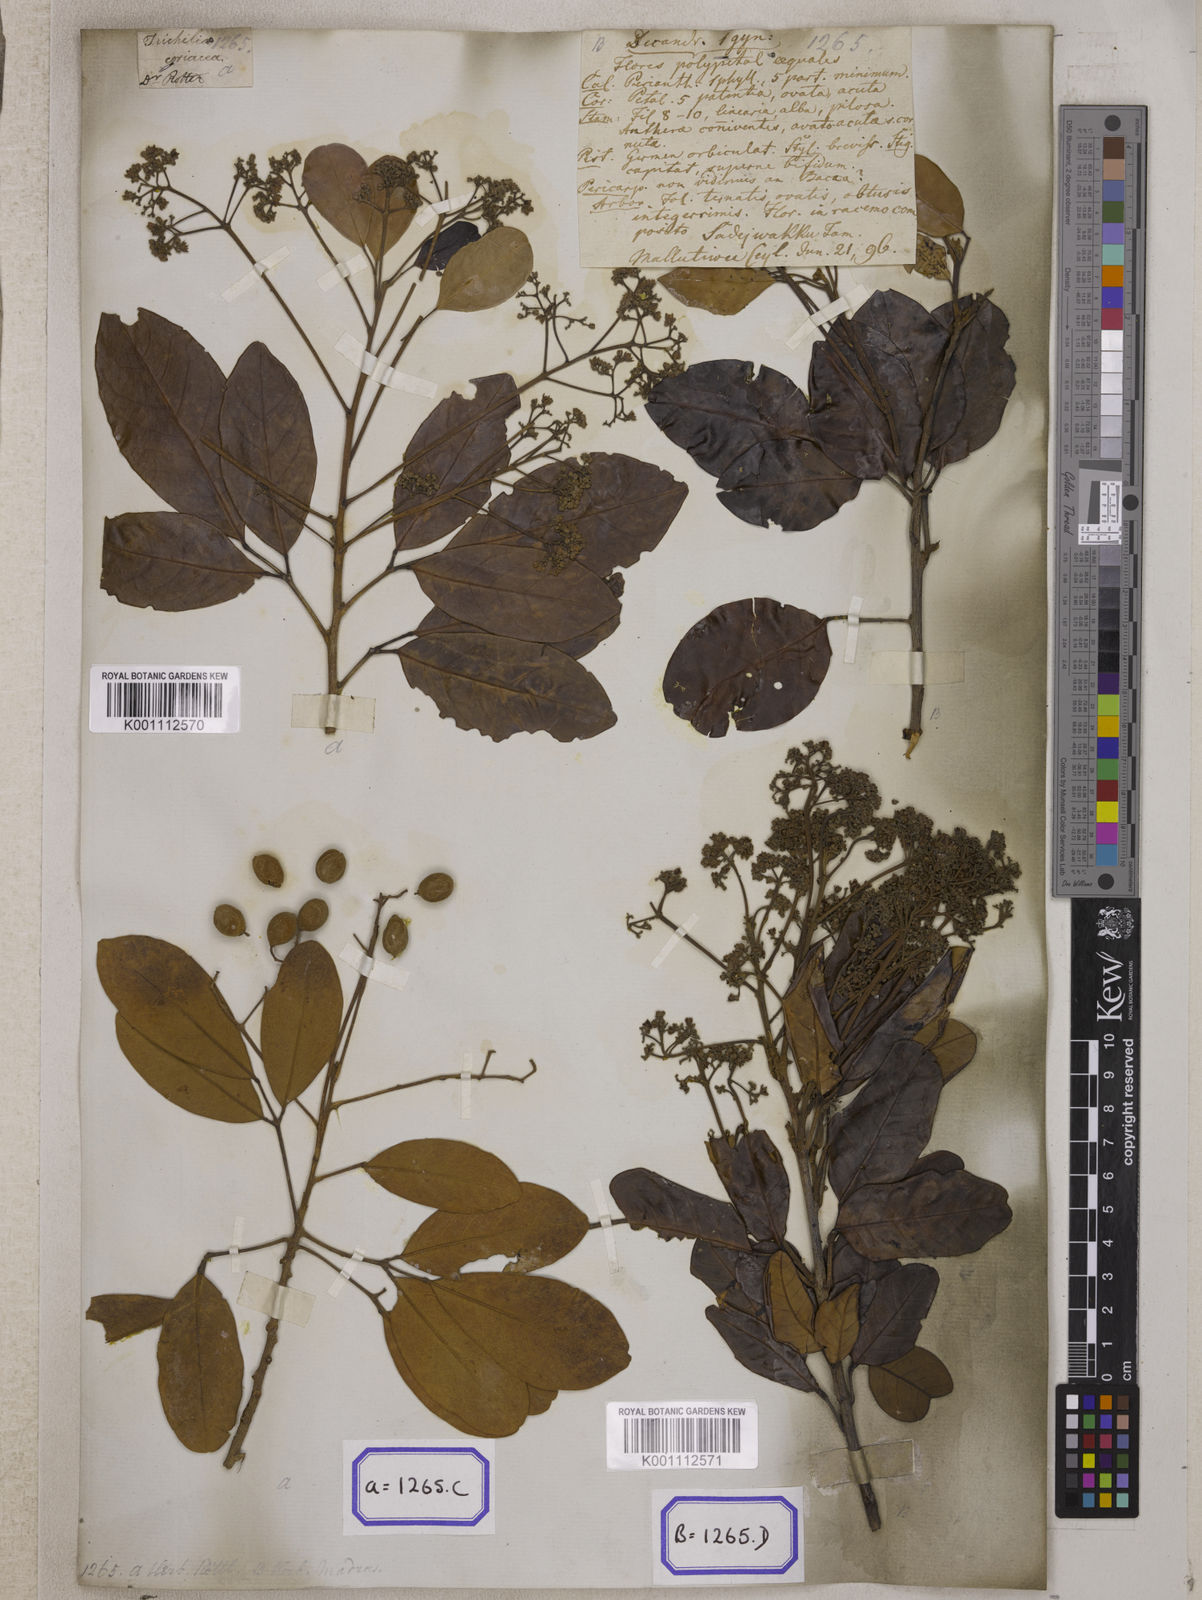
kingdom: Plantae
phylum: Tracheophyta
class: Magnoliopsida
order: Sapindales
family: Meliaceae
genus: Walsura
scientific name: Walsura trifoliolata
